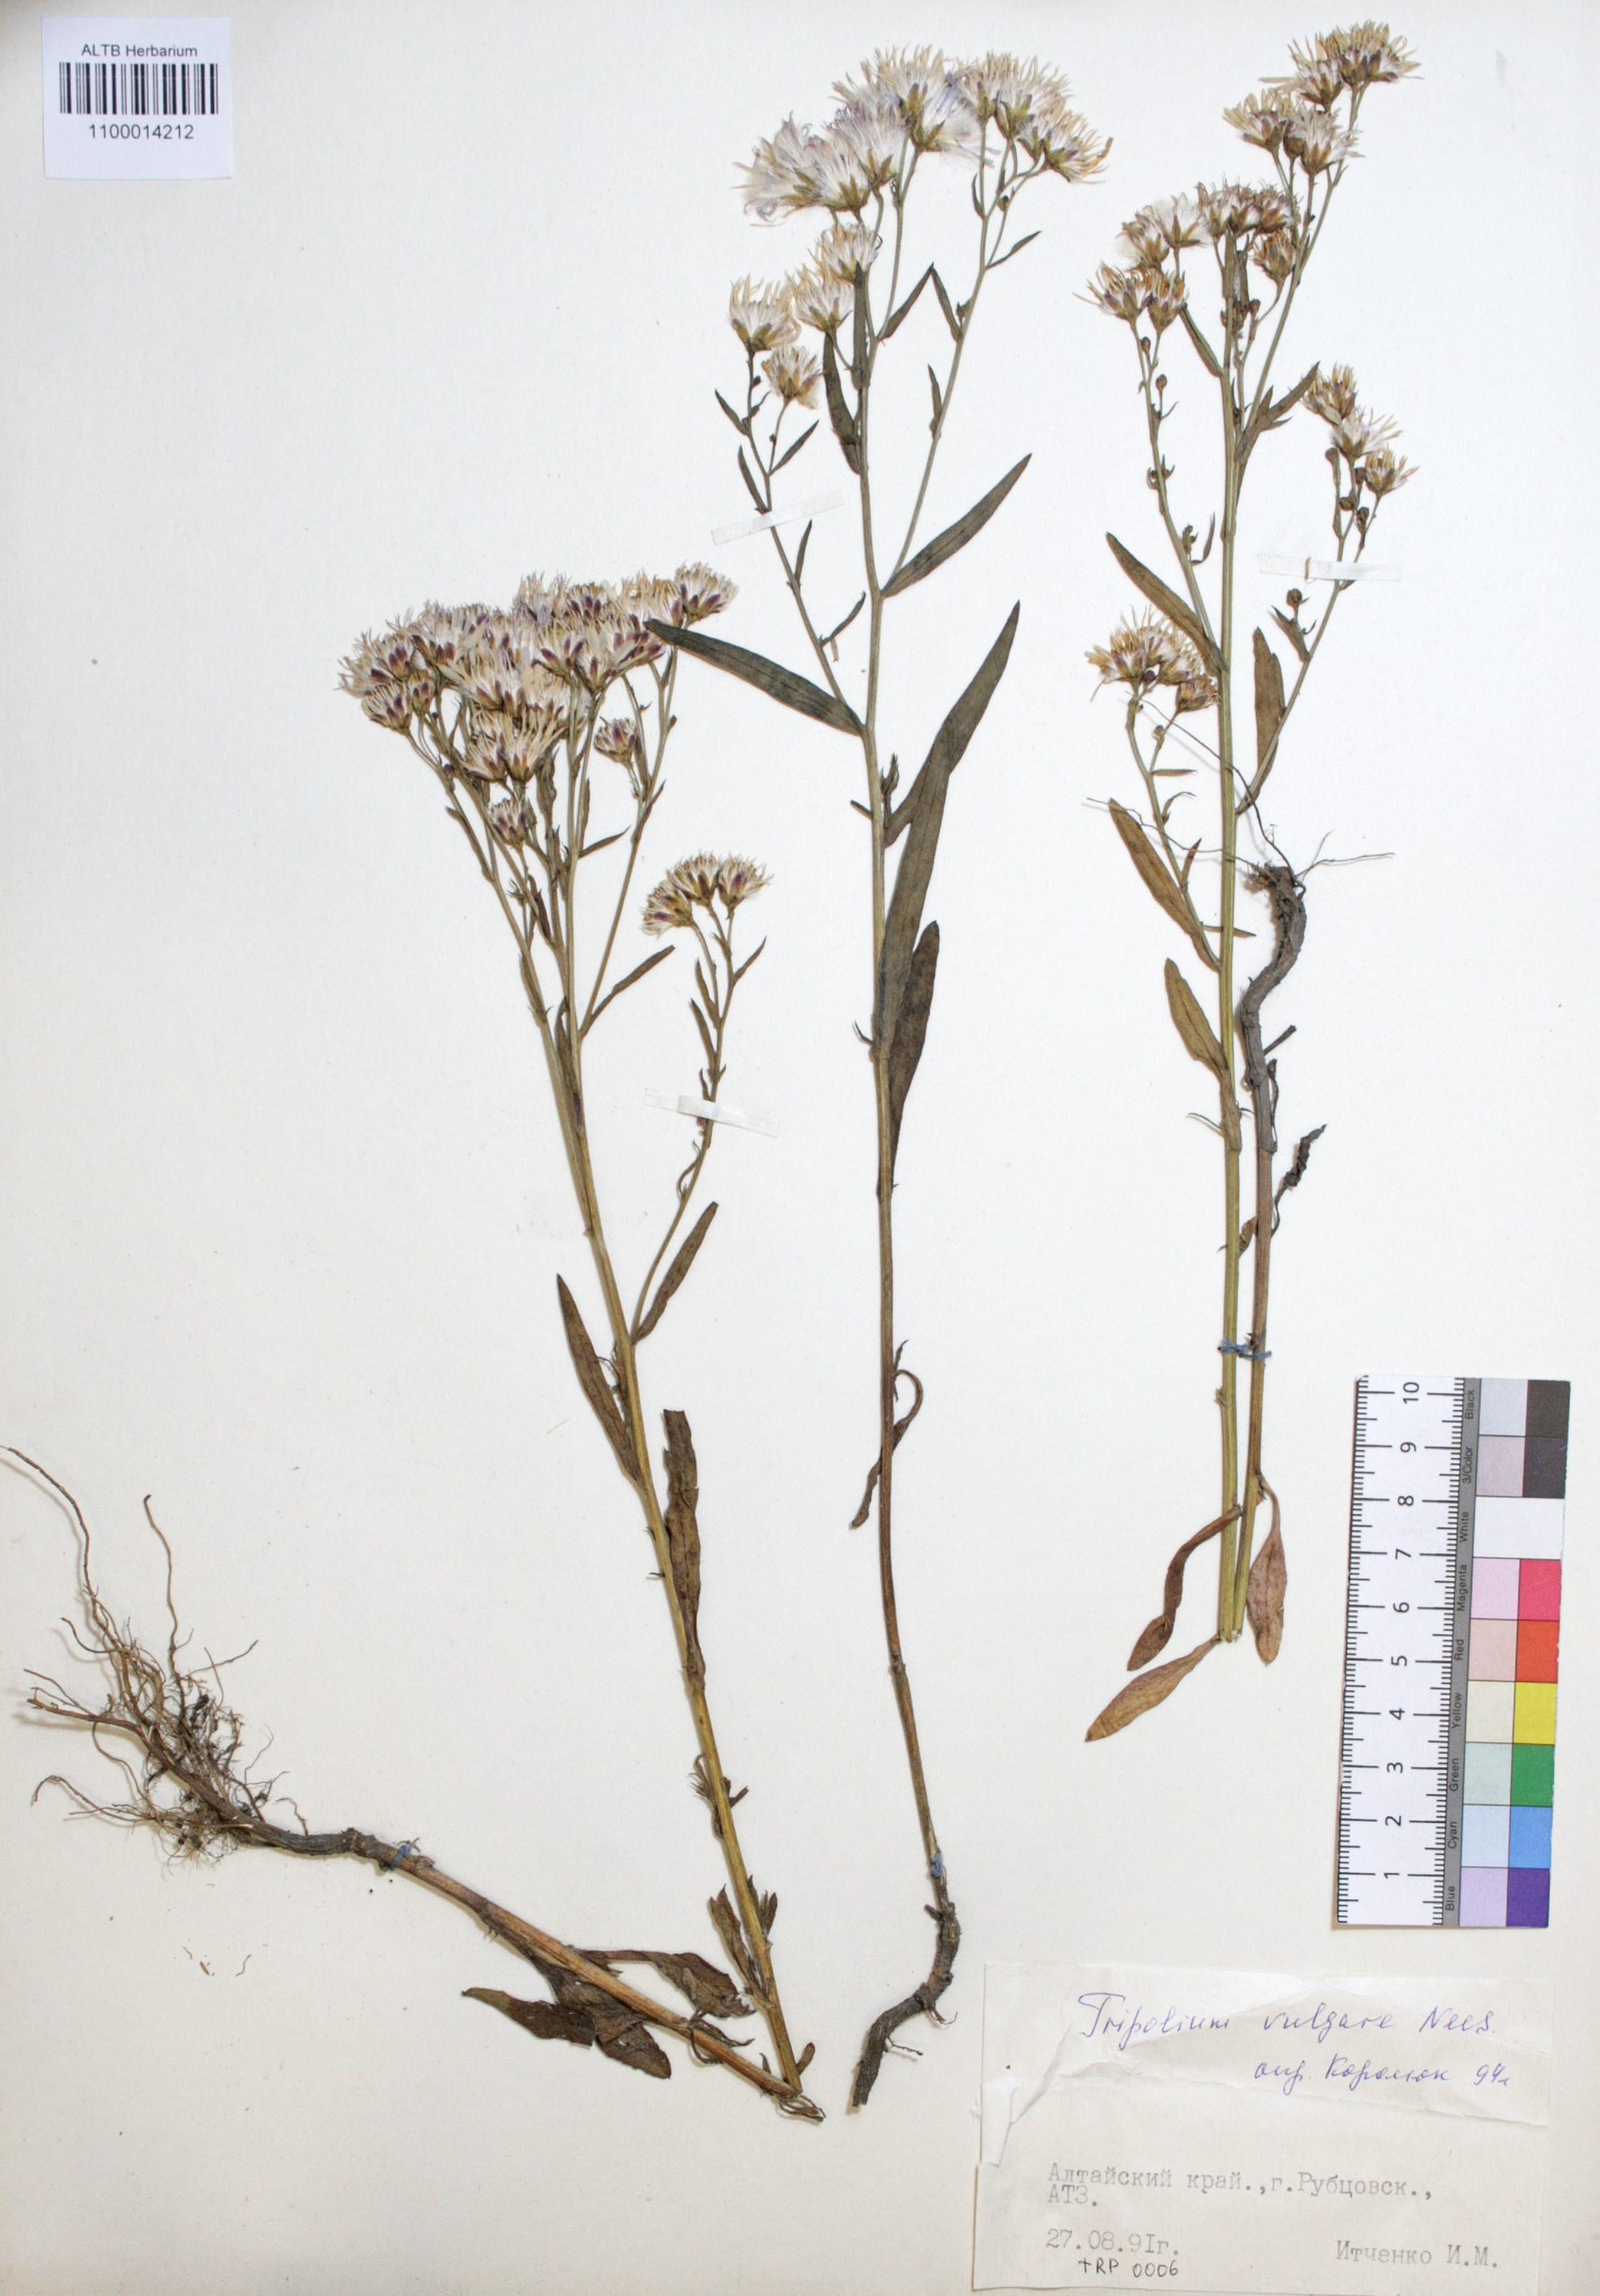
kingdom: Plantae
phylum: Tracheophyta
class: Magnoliopsida
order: Asterales
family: Asteraceae
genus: Tripolium
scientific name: Tripolium pannonicum
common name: Sea aster
